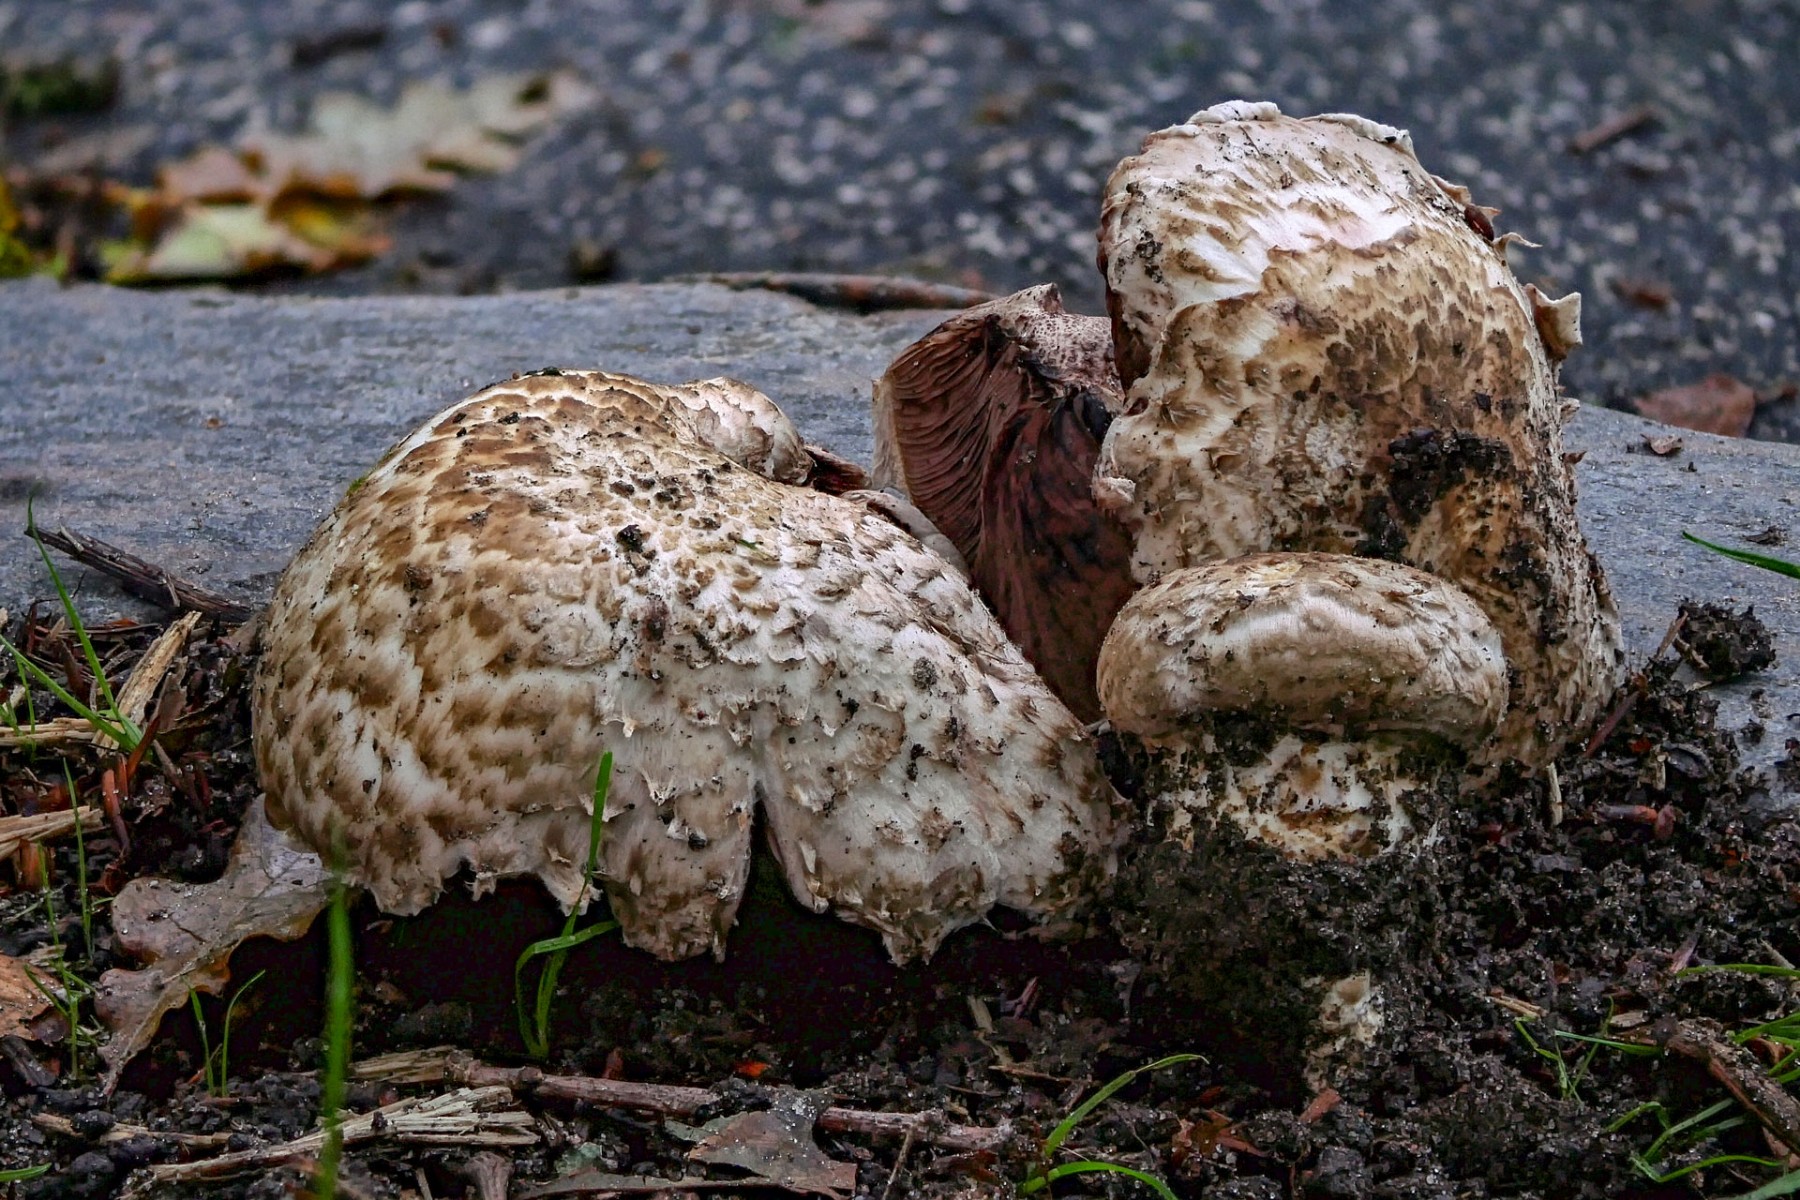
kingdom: Fungi
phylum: Basidiomycota
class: Agaricomycetes
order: Agaricales
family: Agaricaceae
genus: Agaricus
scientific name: Agaricus subperonatus
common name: knippe-champignon
